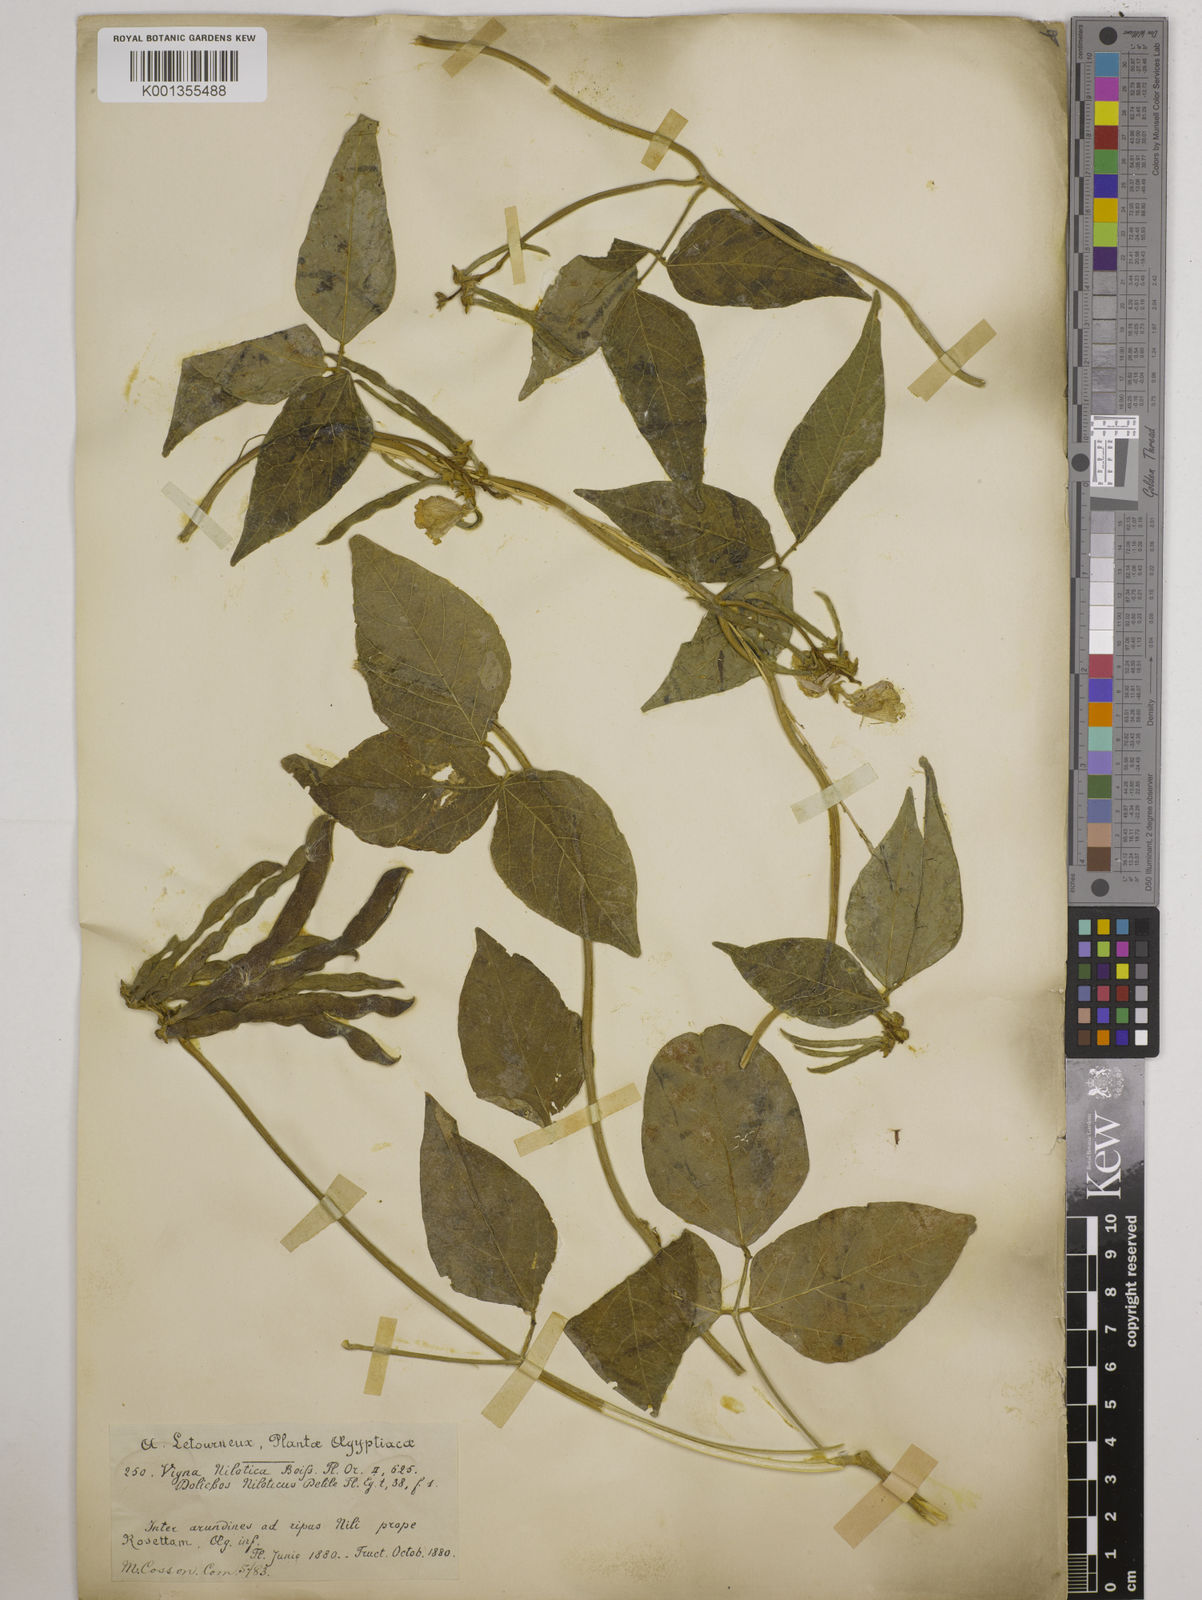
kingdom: Plantae
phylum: Tracheophyta
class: Magnoliopsida
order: Fabales
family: Fabaceae
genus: Vigna
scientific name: Vigna luteola
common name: Hairypod cowpea
